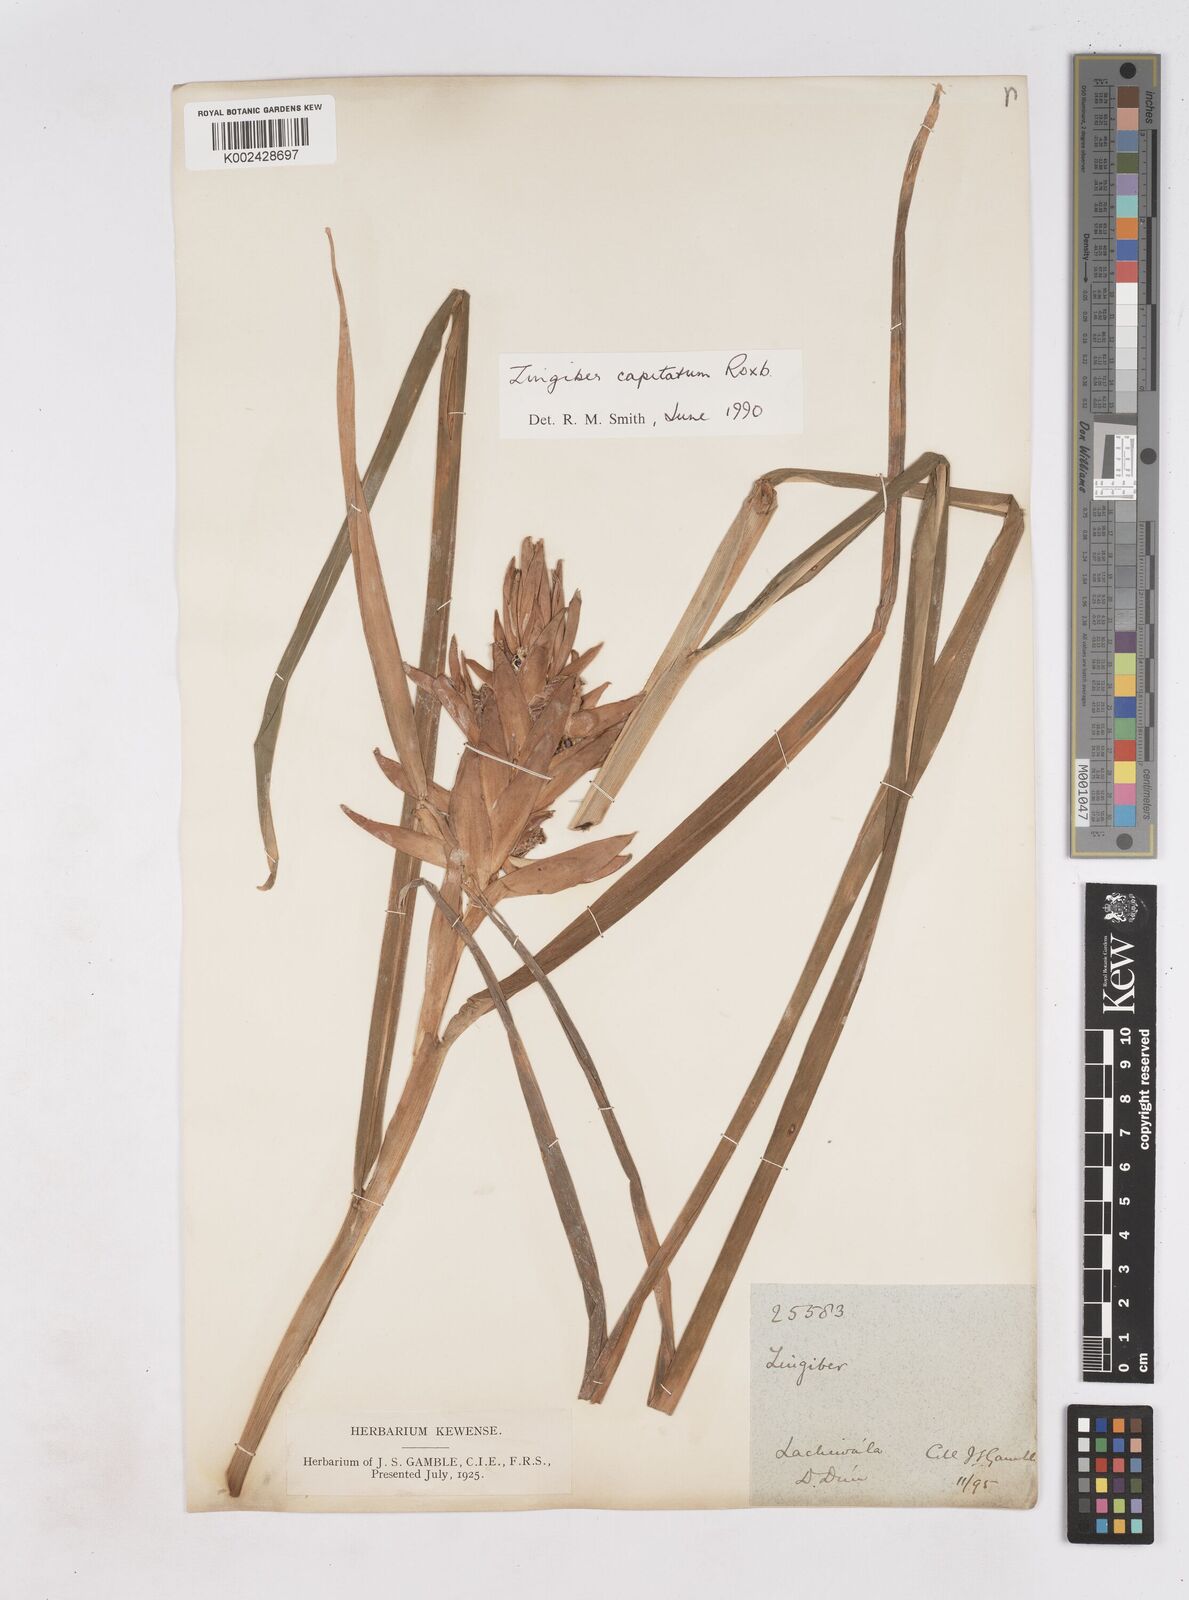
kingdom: Plantae
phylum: Tracheophyta
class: Liliopsida
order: Zingiberales
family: Zingiberaceae
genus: Zingiber
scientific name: Zingiber
